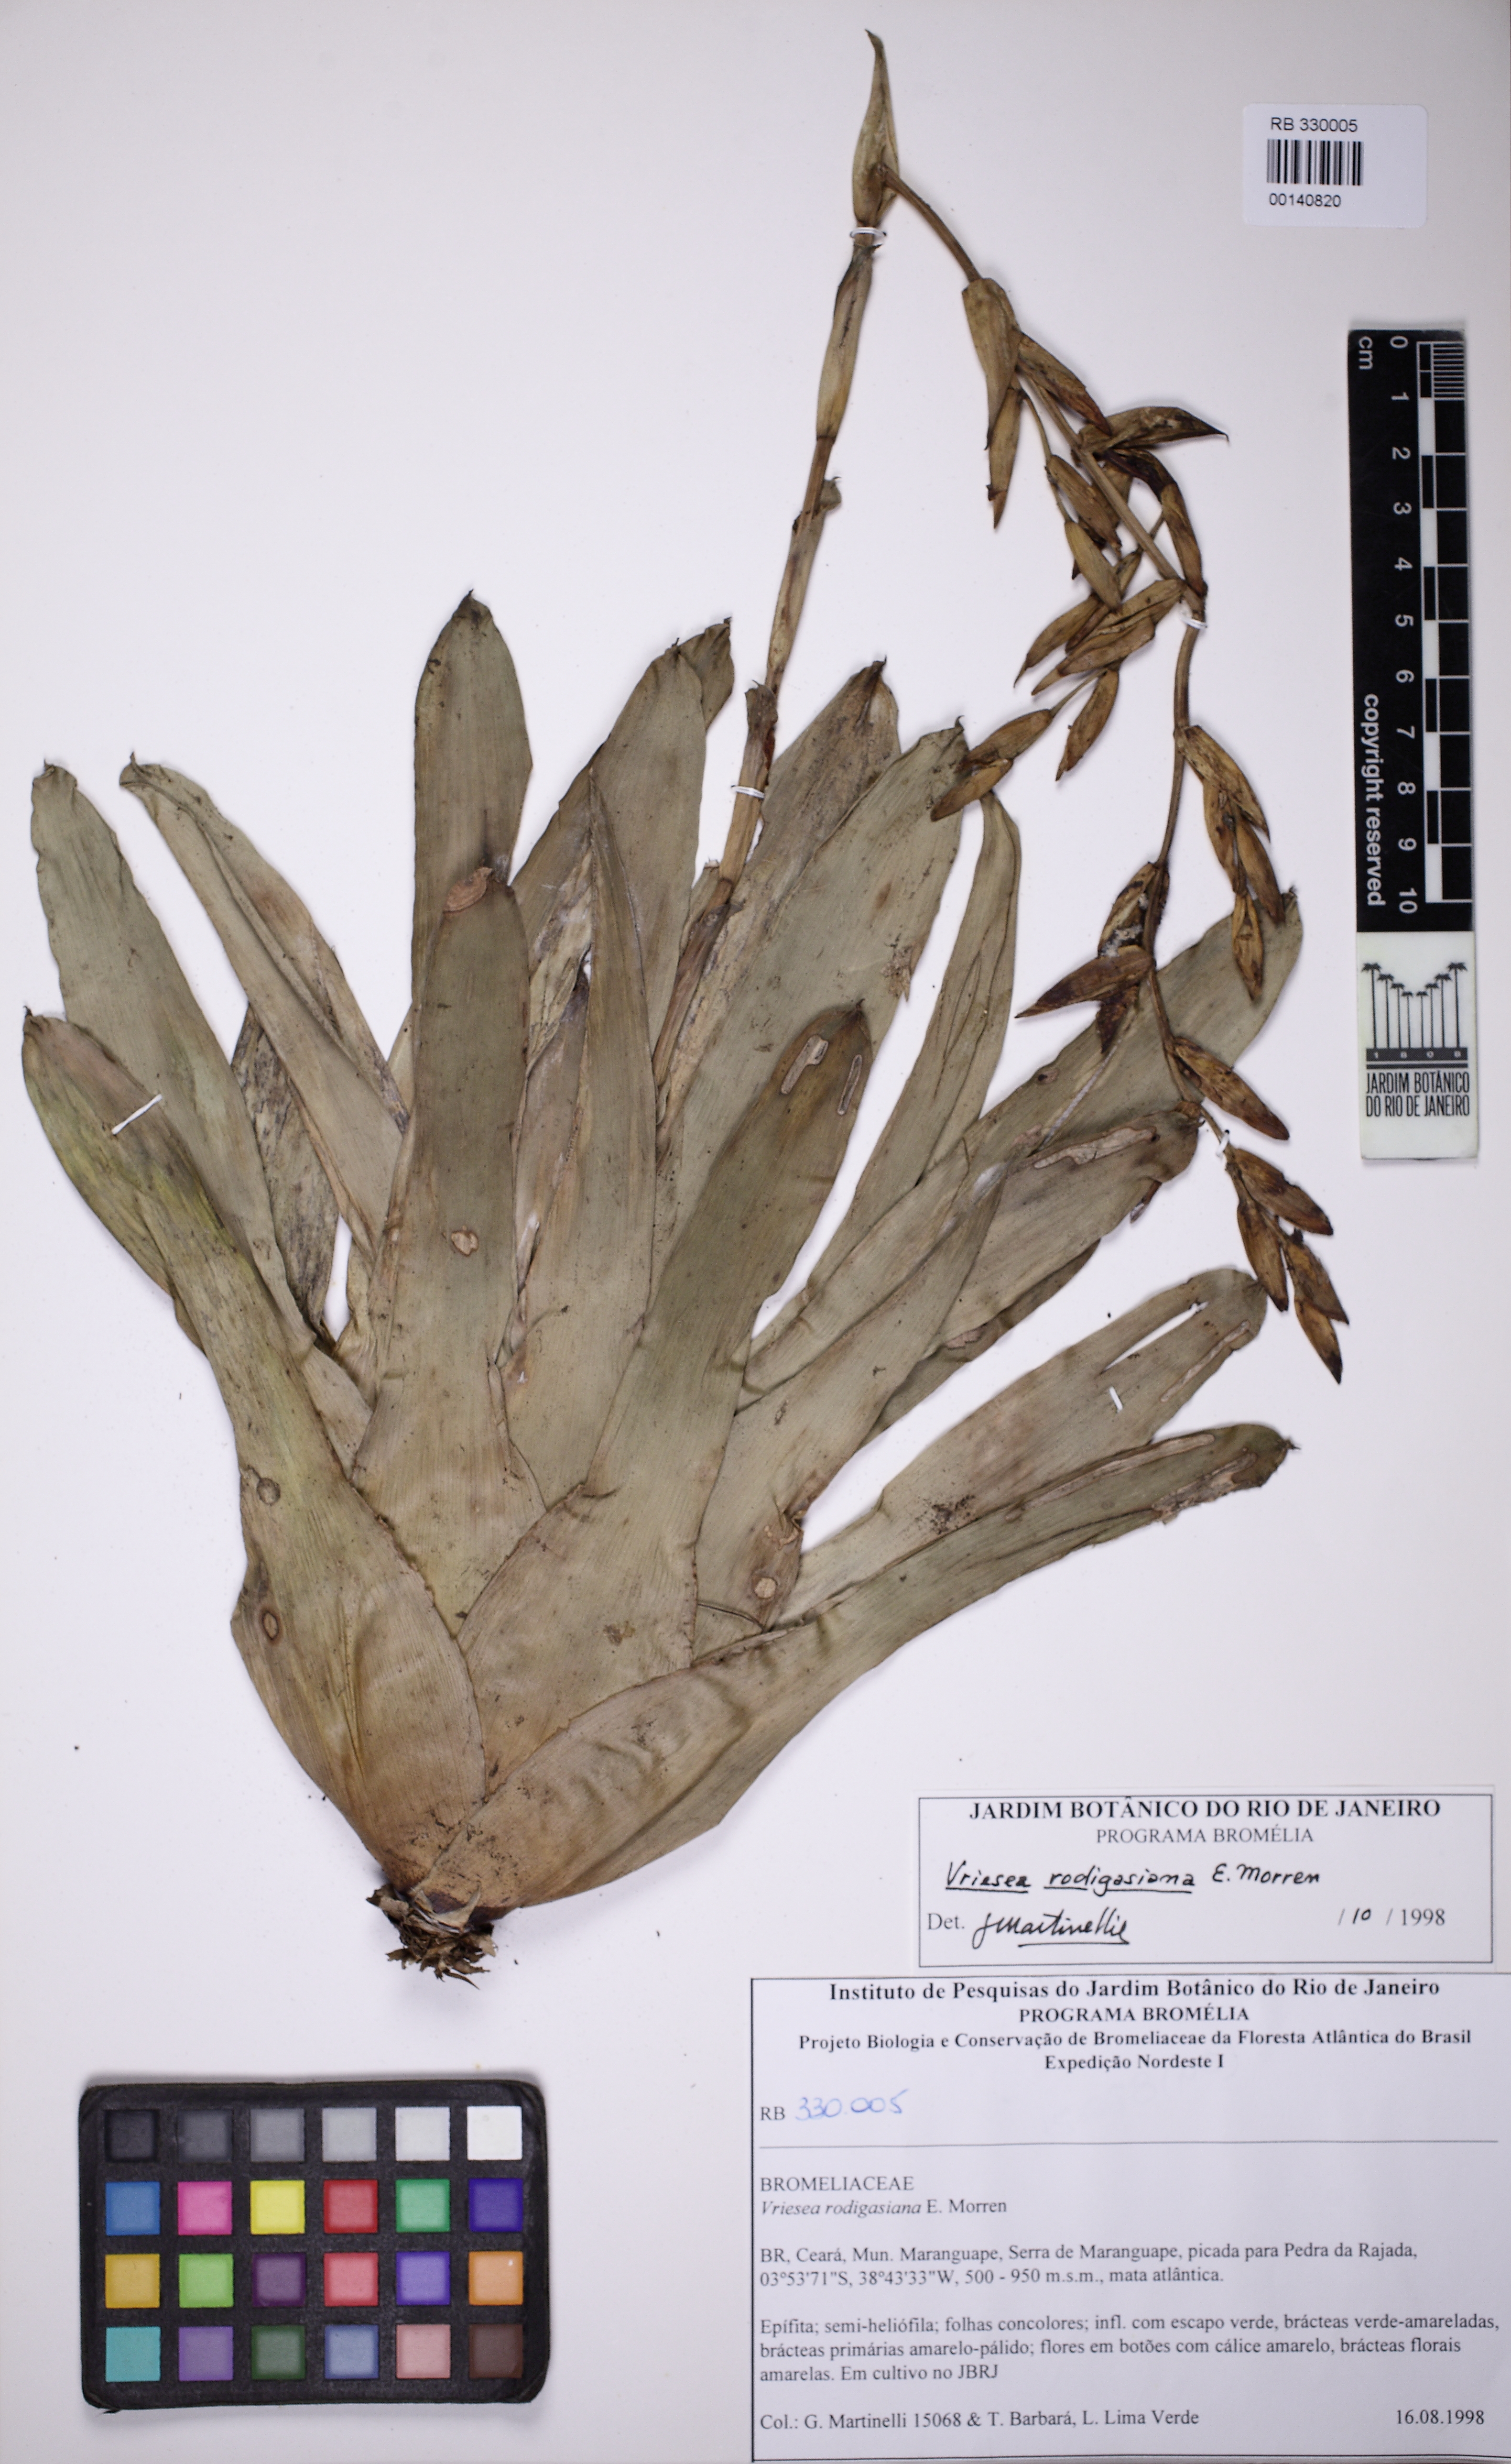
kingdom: Plantae
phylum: Tracheophyta
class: Liliopsida
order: Poales
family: Bromeliaceae
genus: Vriesea
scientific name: Vriesea rodigasiana
